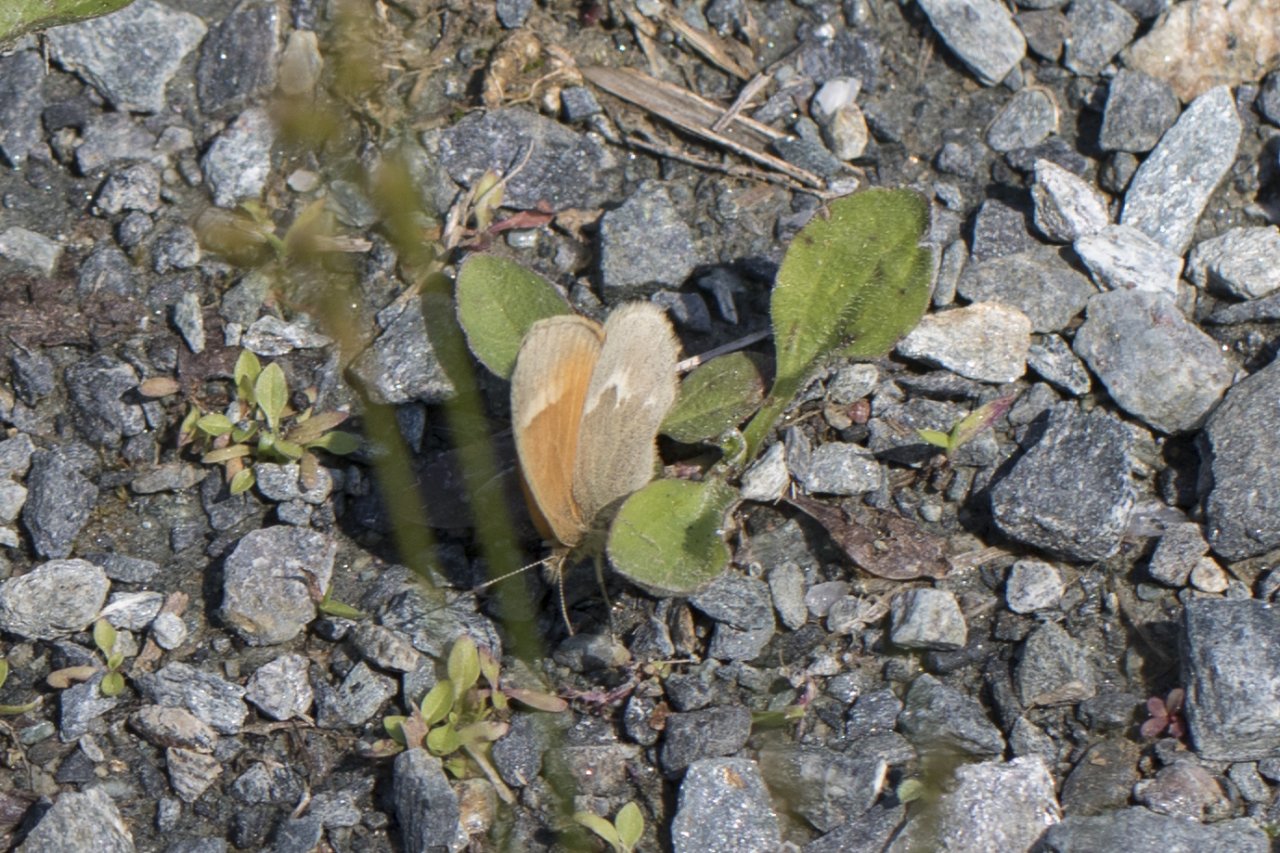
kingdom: Animalia
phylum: Arthropoda
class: Insecta
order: Lepidoptera
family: Nymphalidae
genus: Coenonympha
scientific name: Coenonympha tullia
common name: Large Heath
